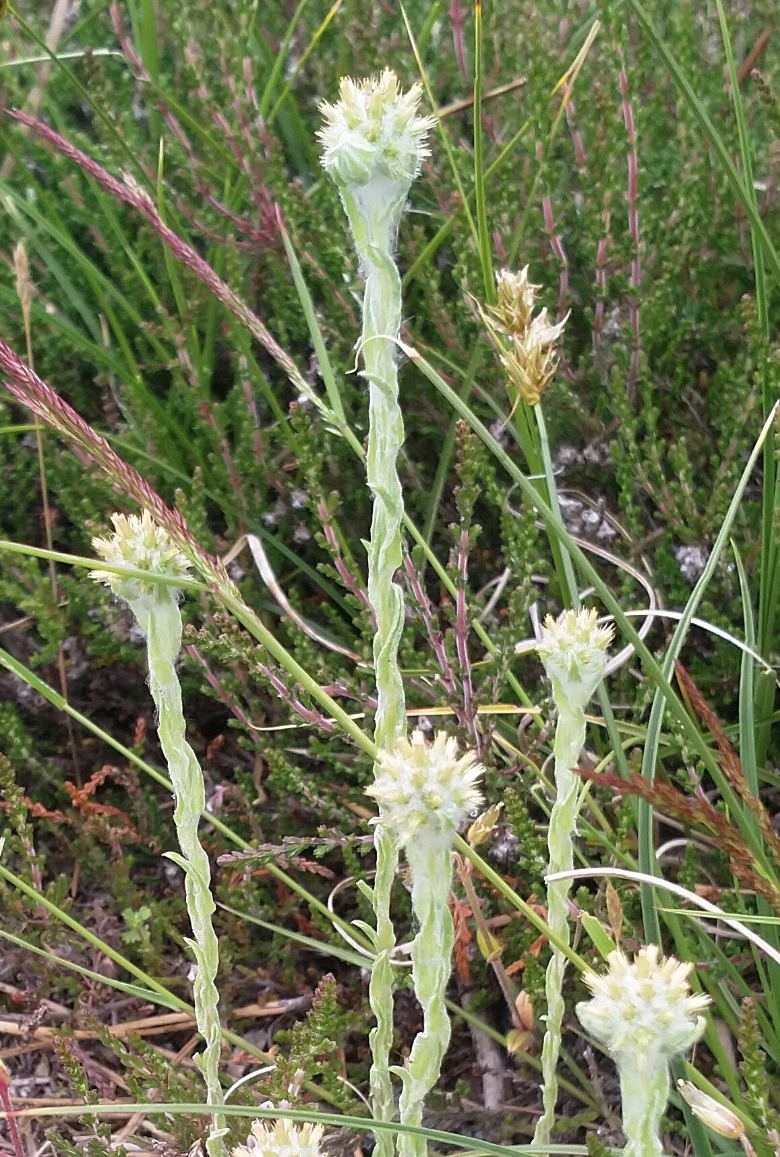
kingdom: Plantae
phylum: Tracheophyta
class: Magnoliopsida
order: Asterales
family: Asteraceae
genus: Filago
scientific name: Filago germanica
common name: Kugle-museurt
